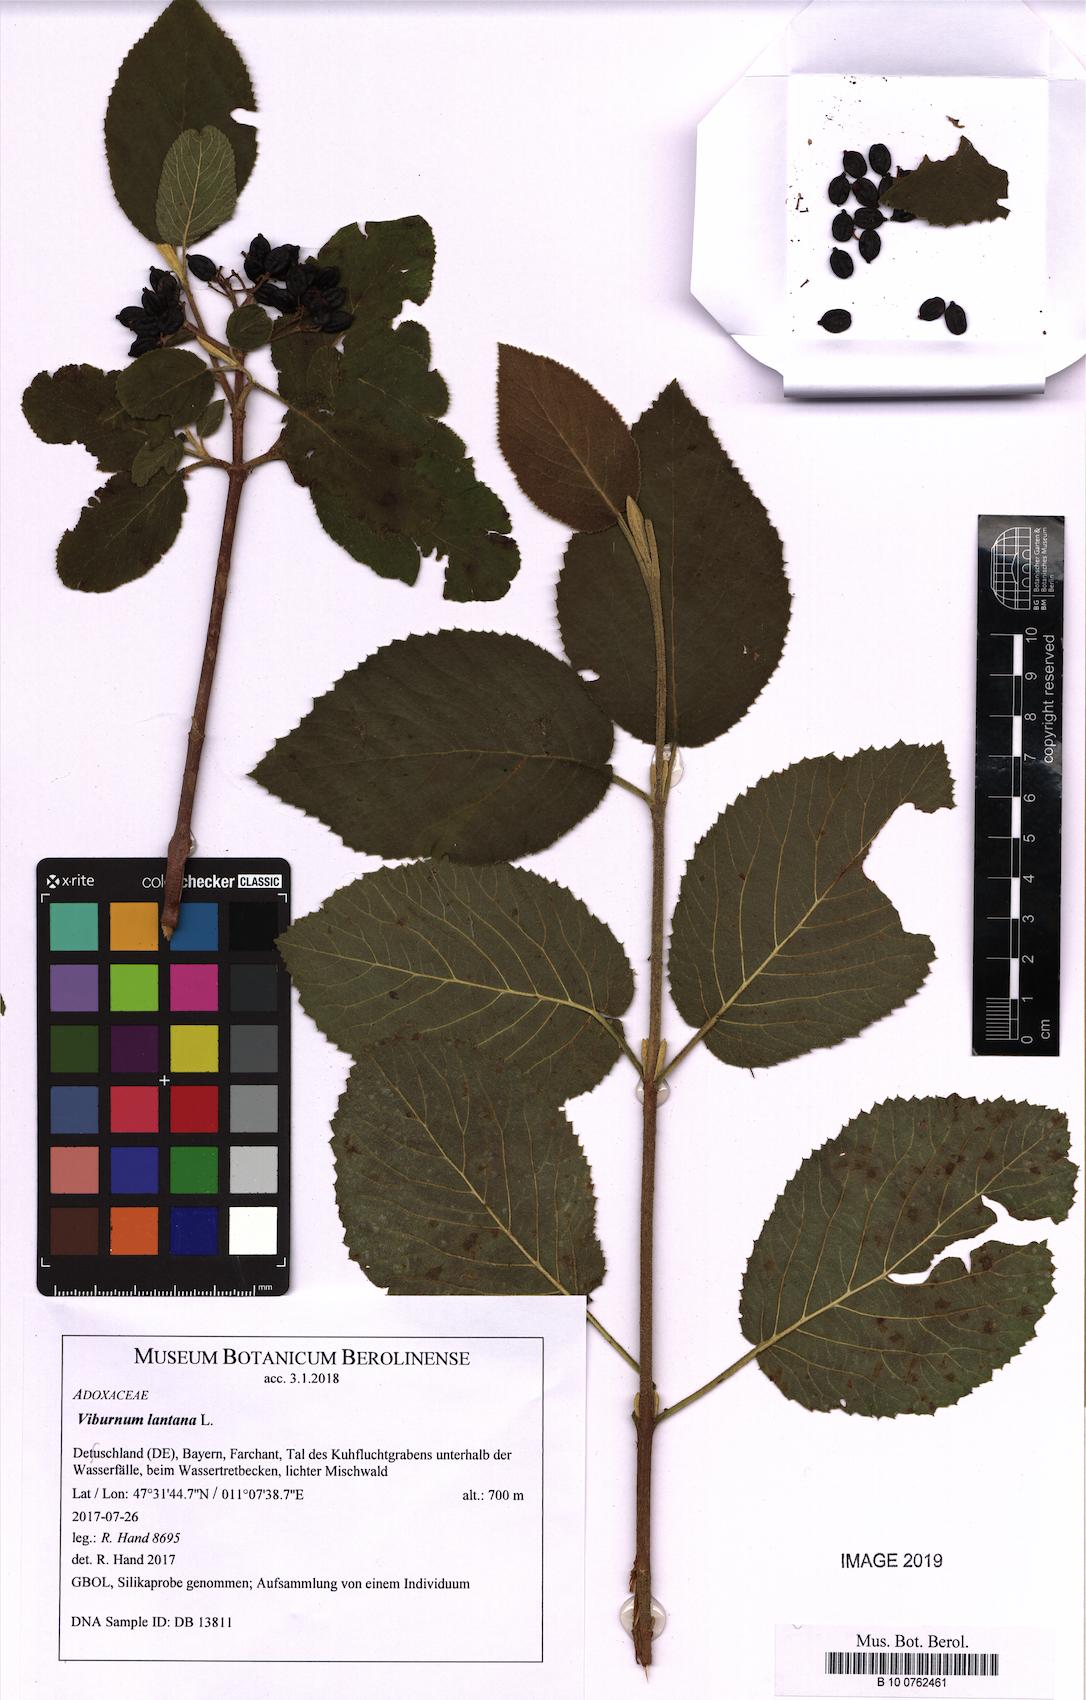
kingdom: Plantae
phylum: Tracheophyta
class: Magnoliopsida
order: Dipsacales
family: Viburnaceae
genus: Viburnum
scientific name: Viburnum lantana
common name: Wayfaring tree
